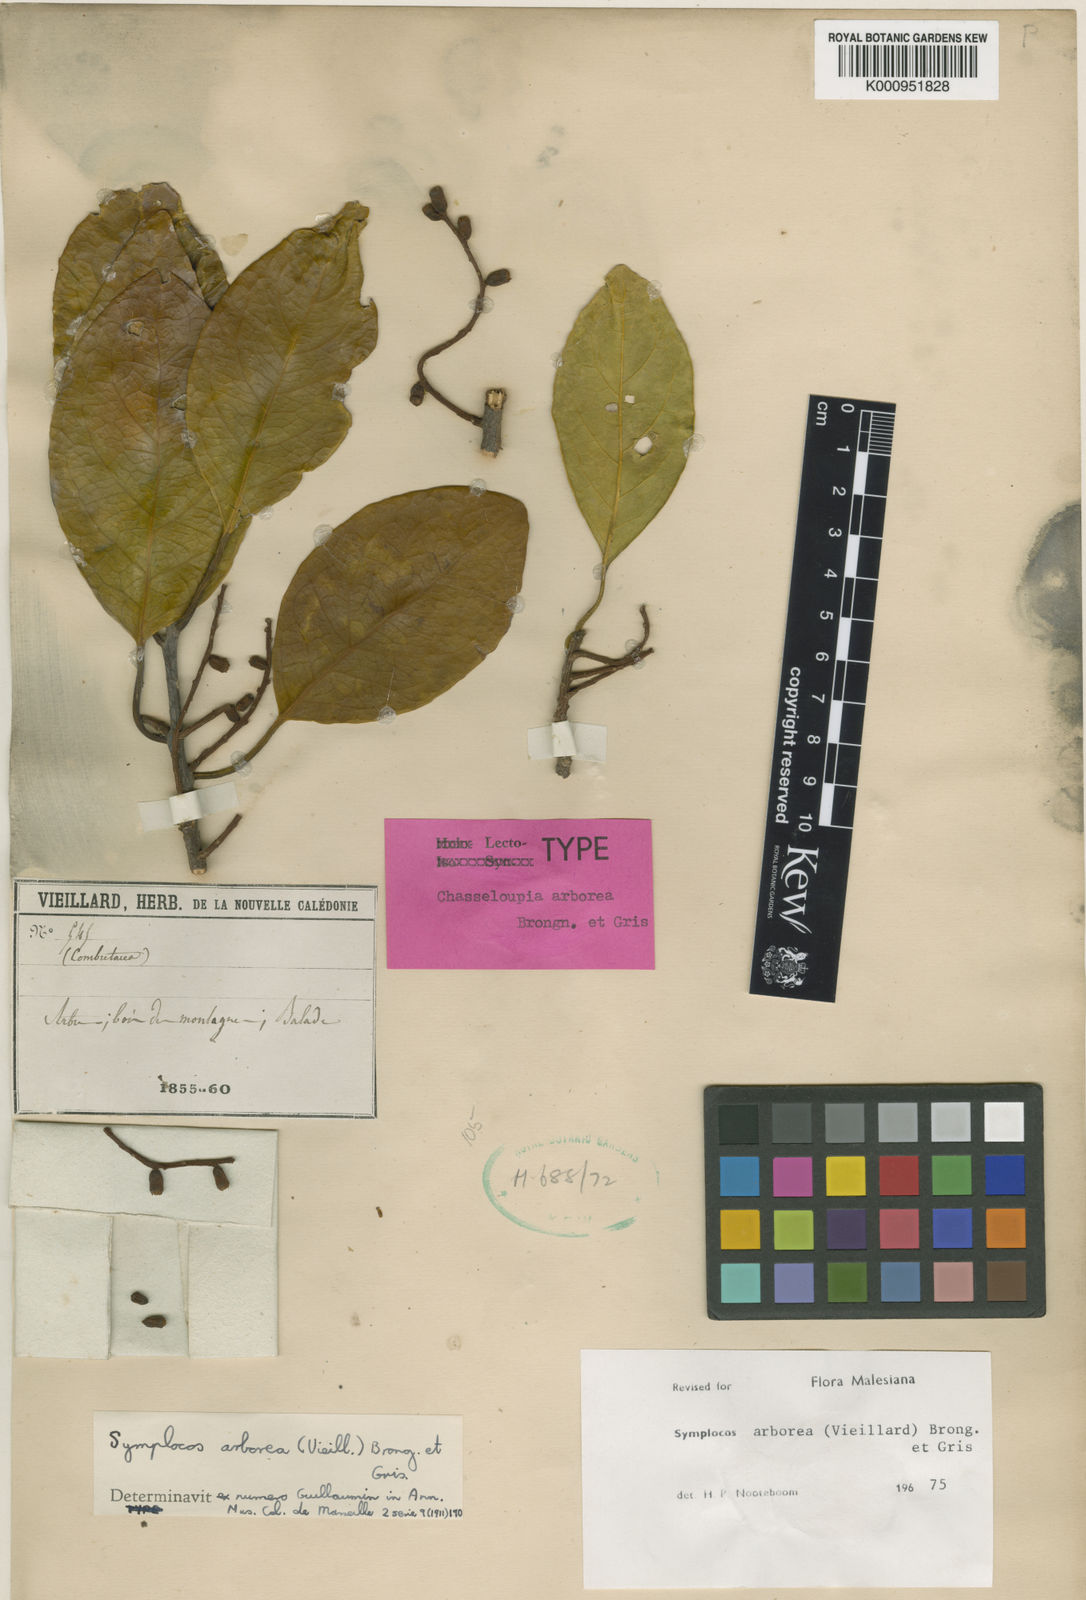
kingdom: Plantae
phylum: Tracheophyta
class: Magnoliopsida
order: Ericales
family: Symplocaceae
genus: Symplocos
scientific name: Symplocos arborea
